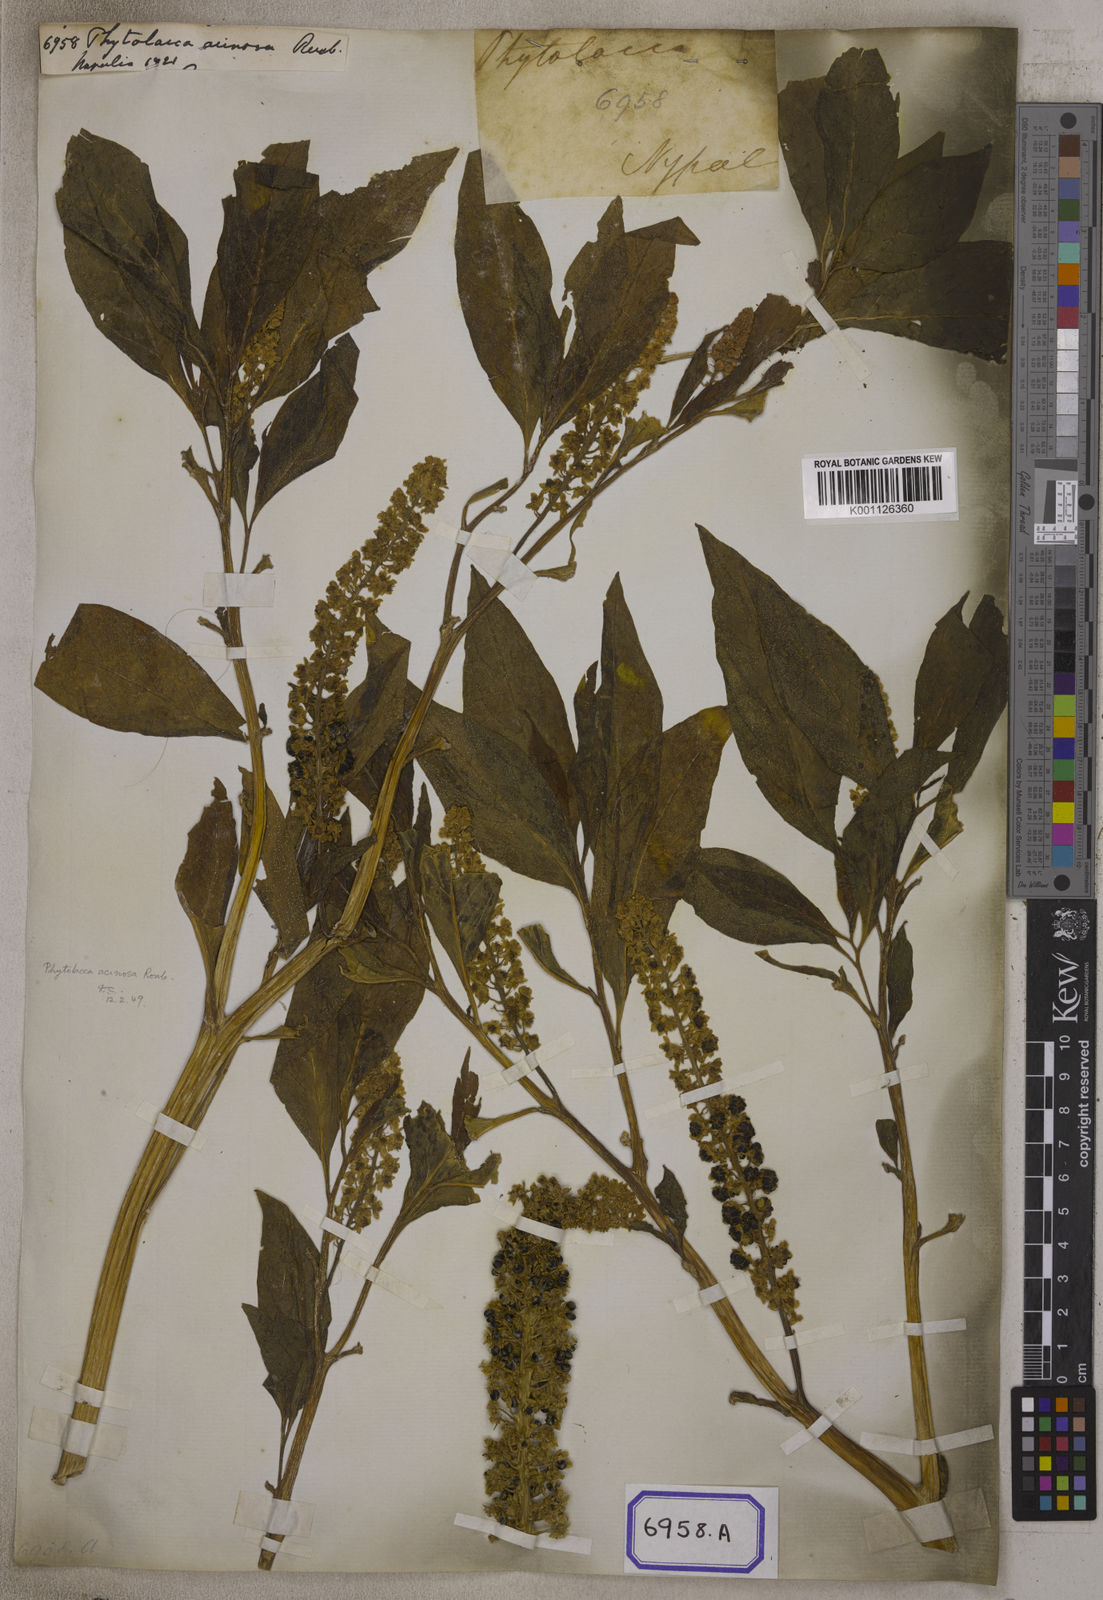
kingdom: Plantae
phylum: Tracheophyta
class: Magnoliopsida
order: Caryophyllales
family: Phytolaccaceae
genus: Phytolacca
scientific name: Phytolacca acinosa
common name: Indian pokeweed
